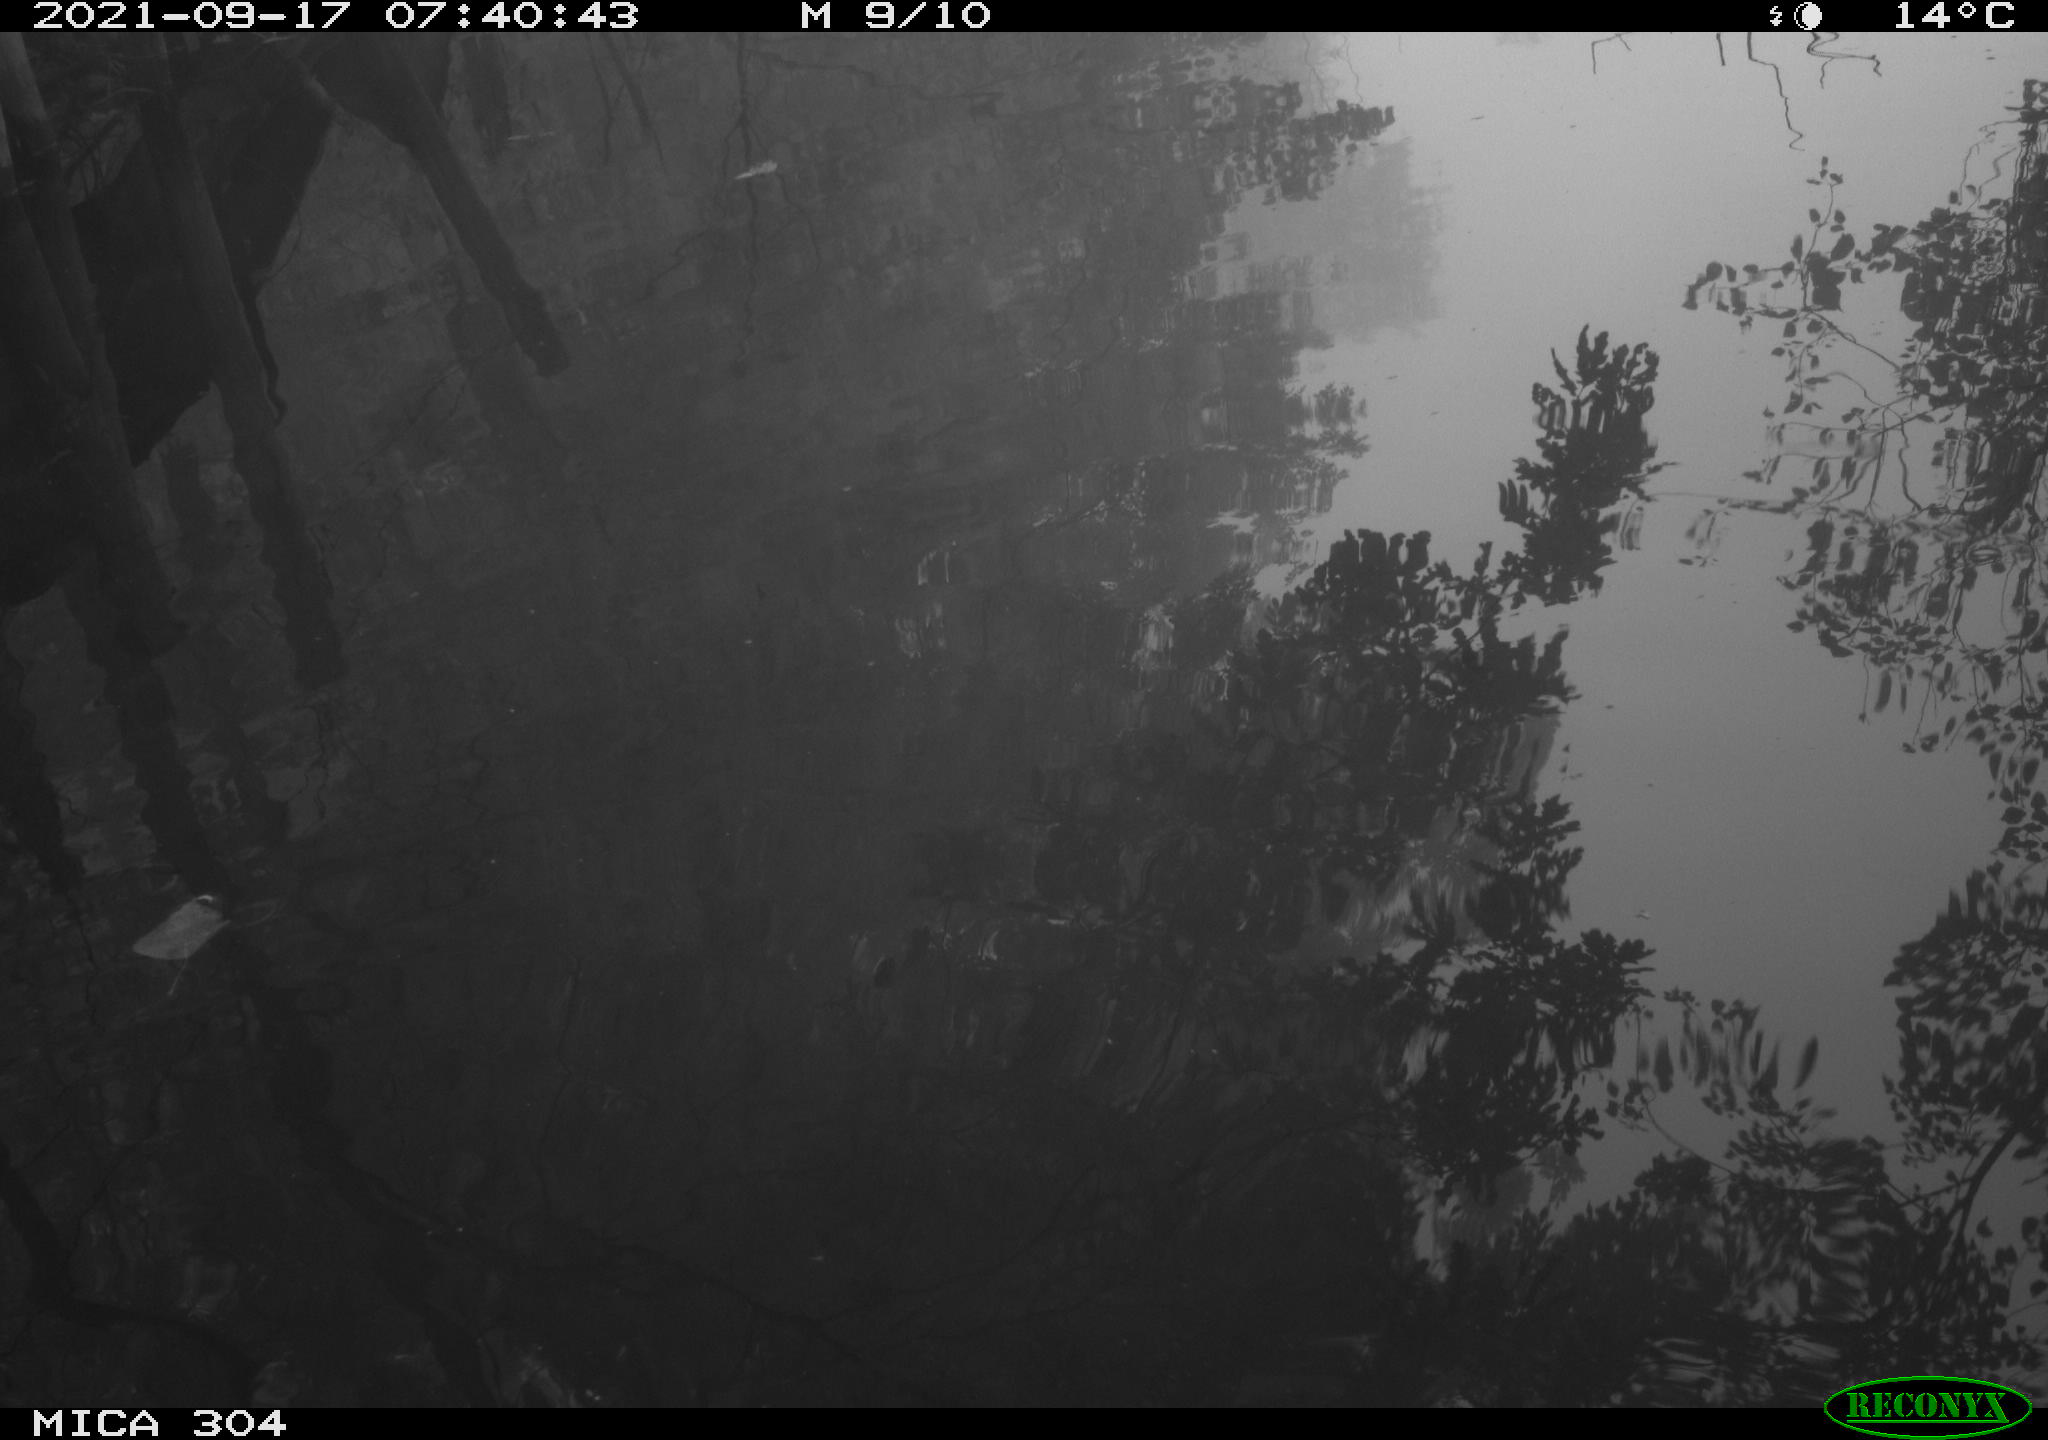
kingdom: Animalia
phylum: Chordata
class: Aves
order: Gruiformes
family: Rallidae
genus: Gallinula
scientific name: Gallinula chloropus
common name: Common moorhen
